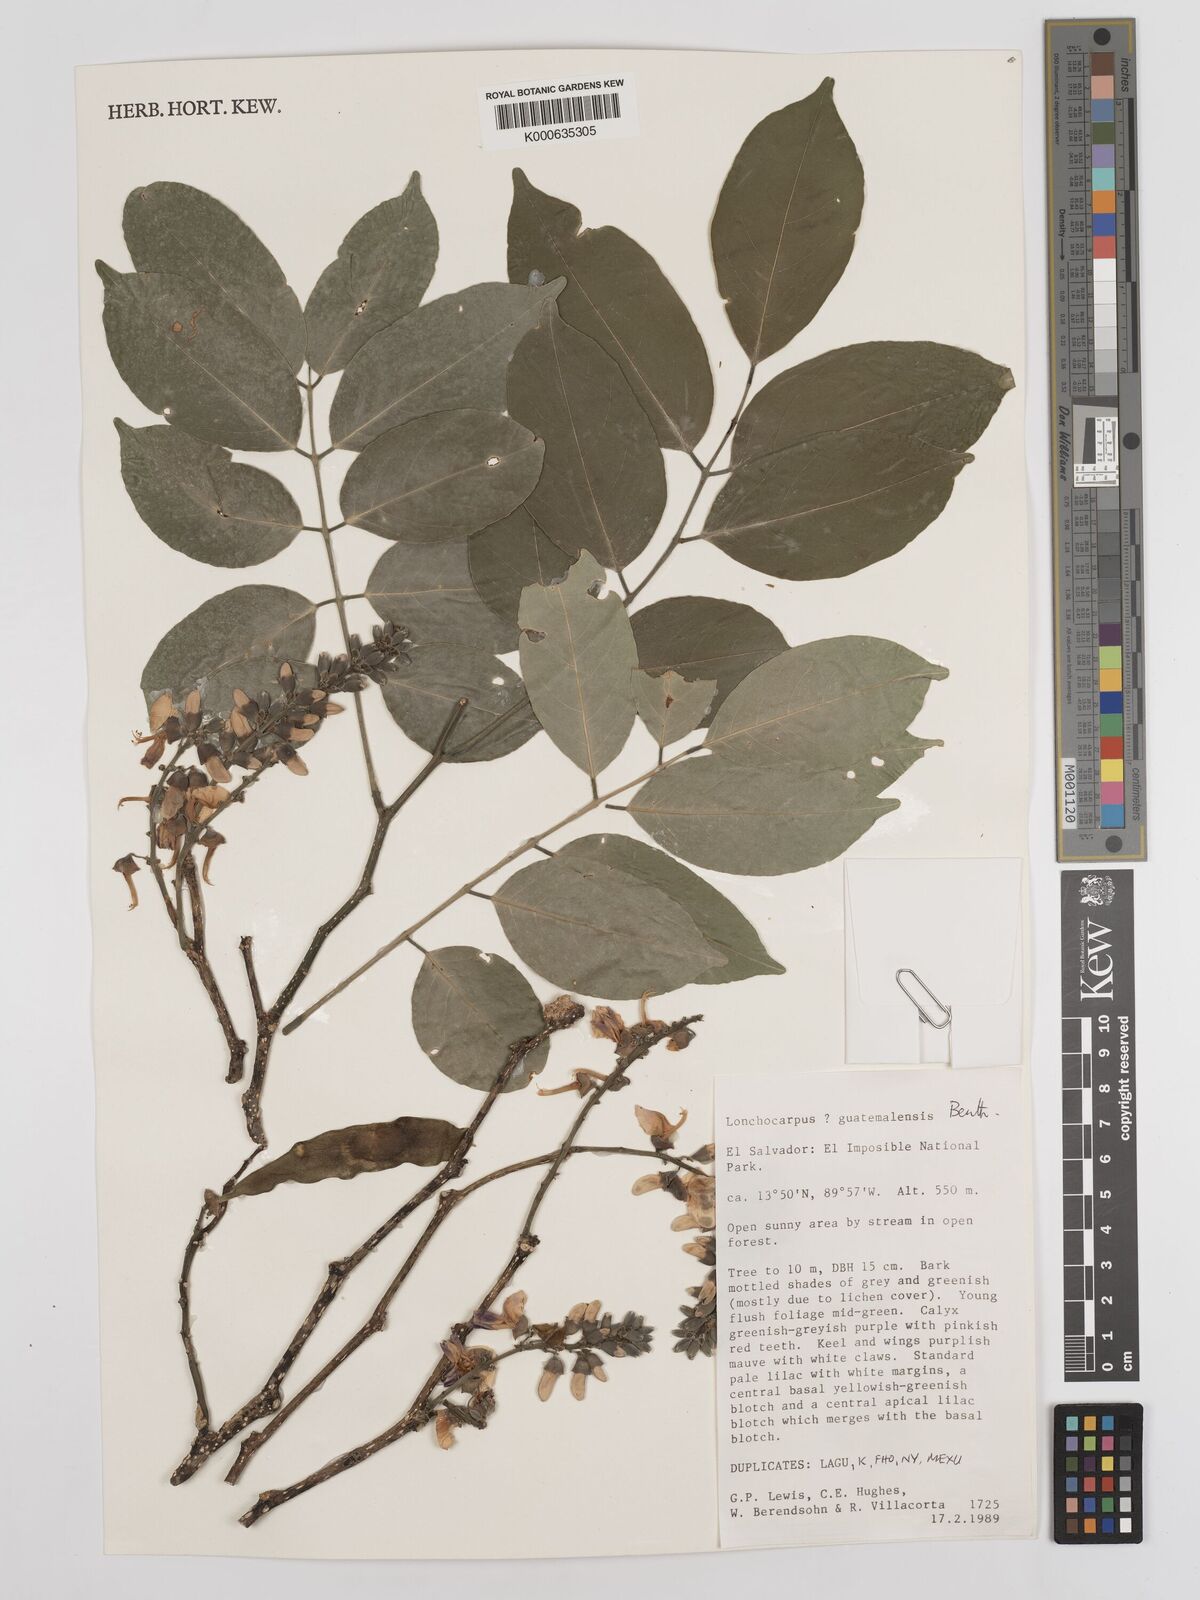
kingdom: Plantae
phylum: Tracheophyta
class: Magnoliopsida
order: Fabales
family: Fabaceae
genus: Lonchocarpus
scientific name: Lonchocarpus guatemalensis
